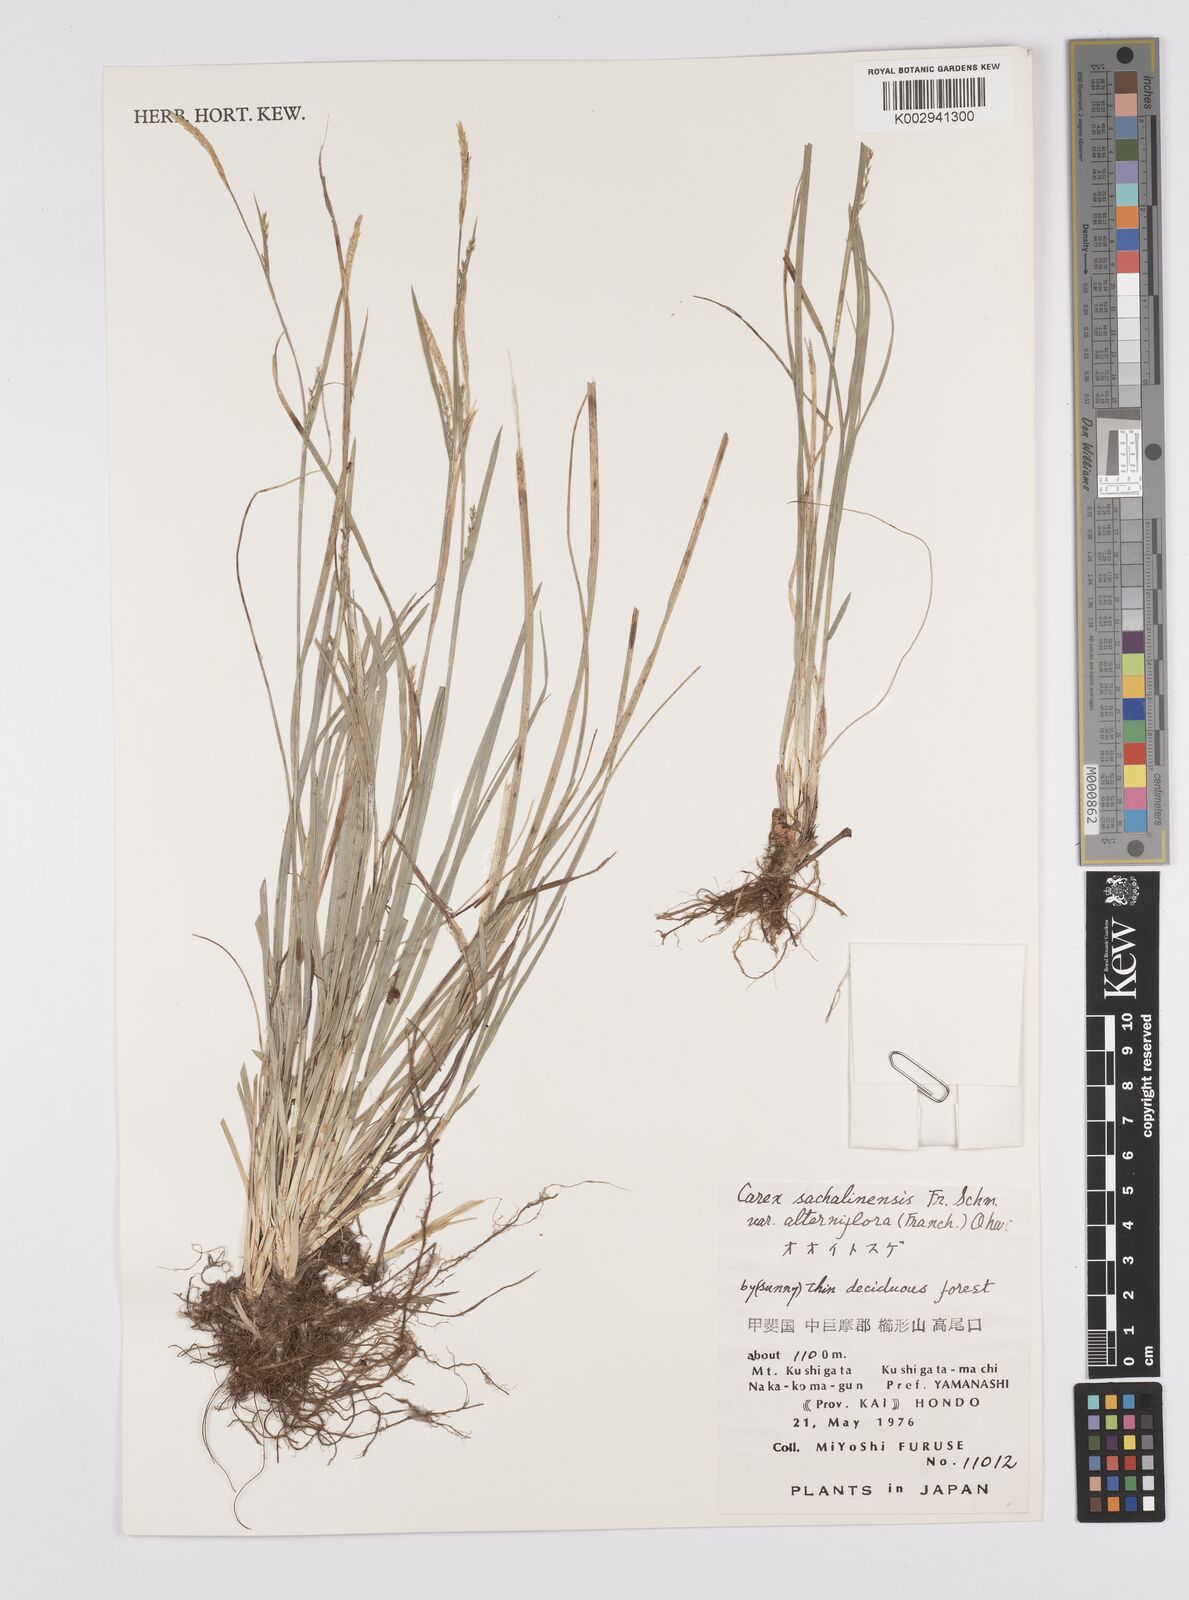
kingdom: Plantae
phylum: Tracheophyta
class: Liliopsida
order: Poales
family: Cyperaceae
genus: Carex
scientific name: Carex pisiformis
